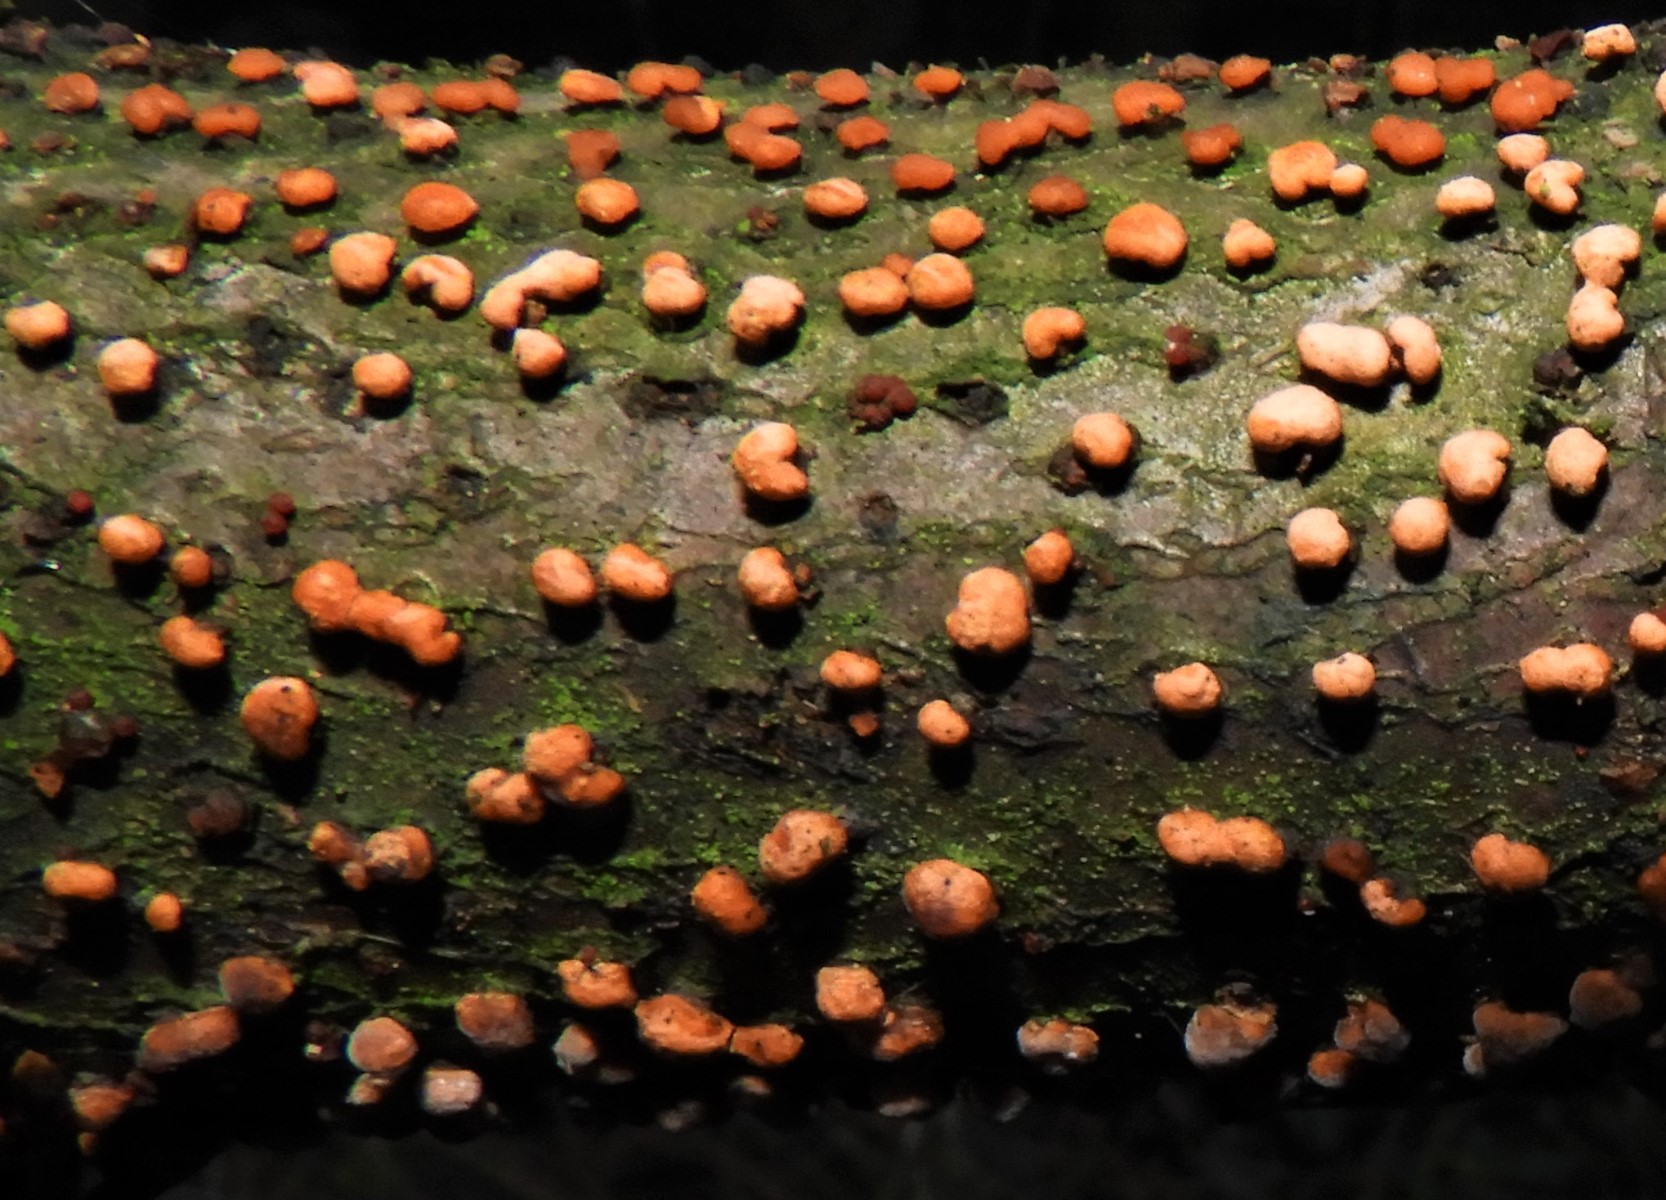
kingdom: Fungi
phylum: Ascomycota
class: Sordariomycetes
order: Hypocreales
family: Nectriaceae
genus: Nectria
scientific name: Nectria cinnabarina
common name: almindelig cinnobersvamp
